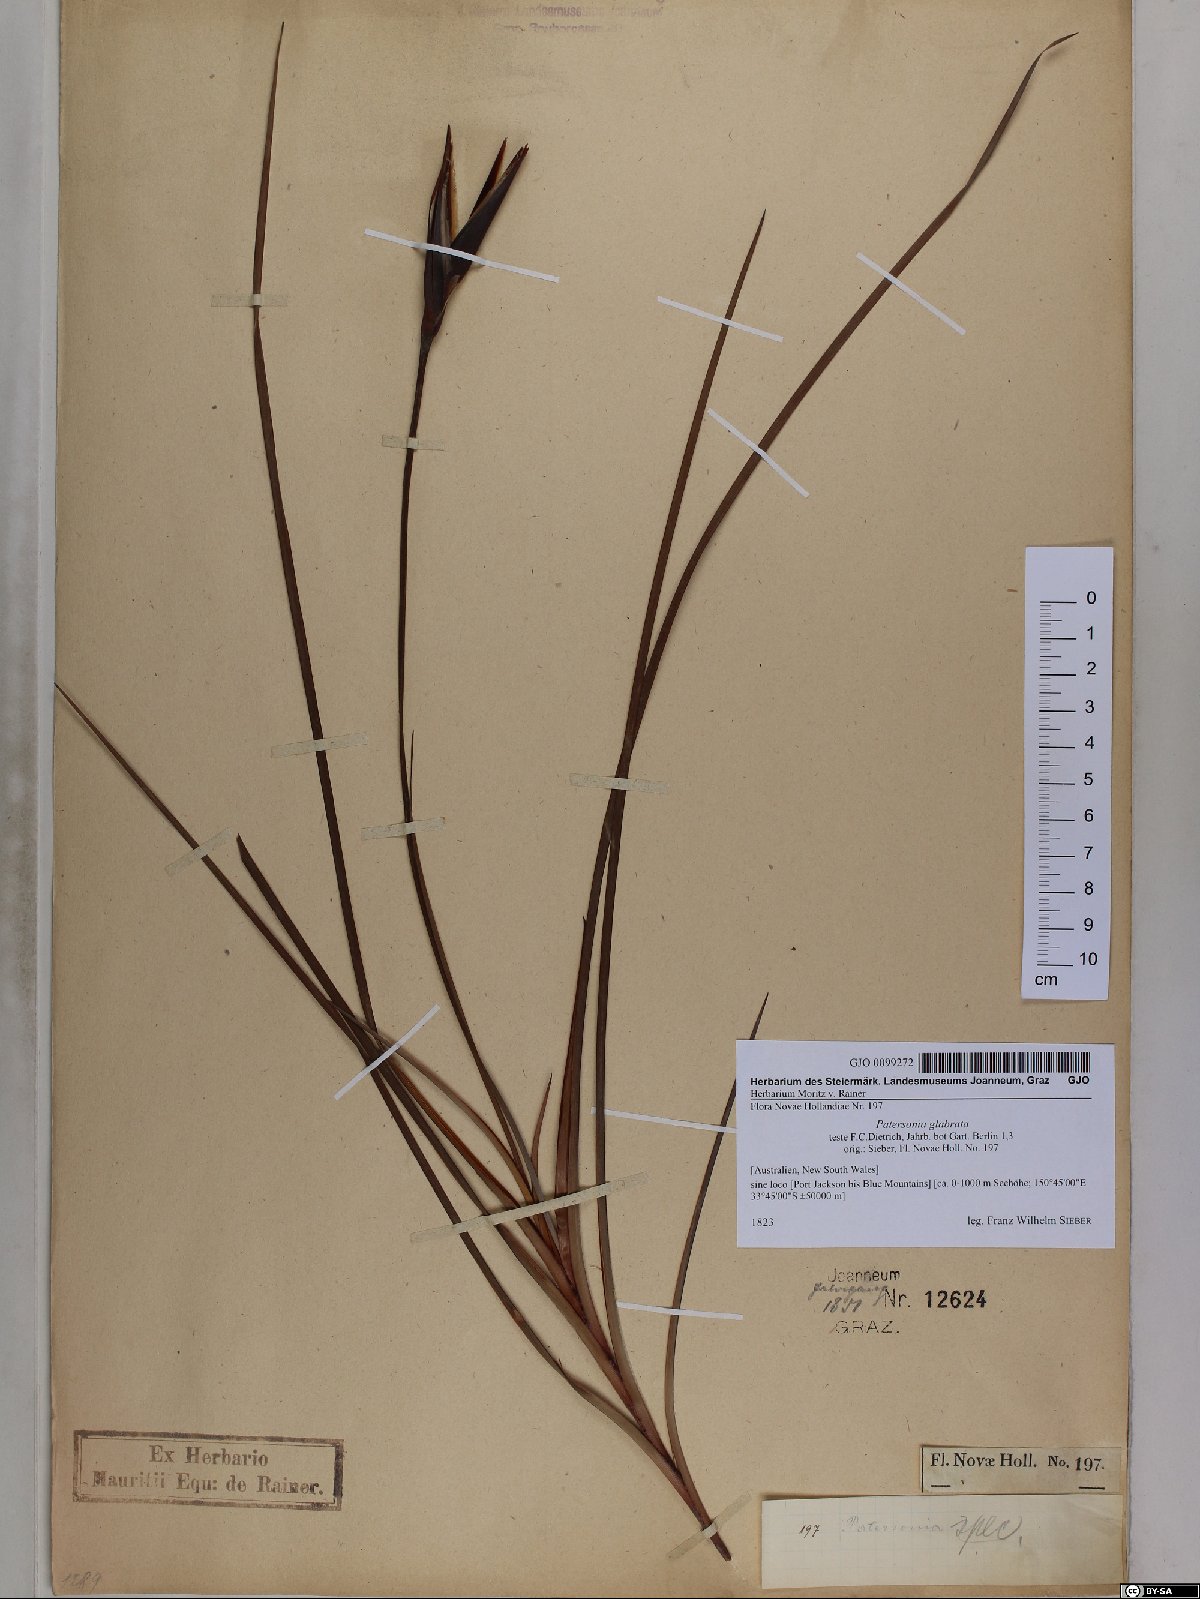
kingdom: Plantae
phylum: Tracheophyta
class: Liliopsida
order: Asparagales
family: Iridaceae
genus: Patersonia
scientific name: Patersonia glabrata
